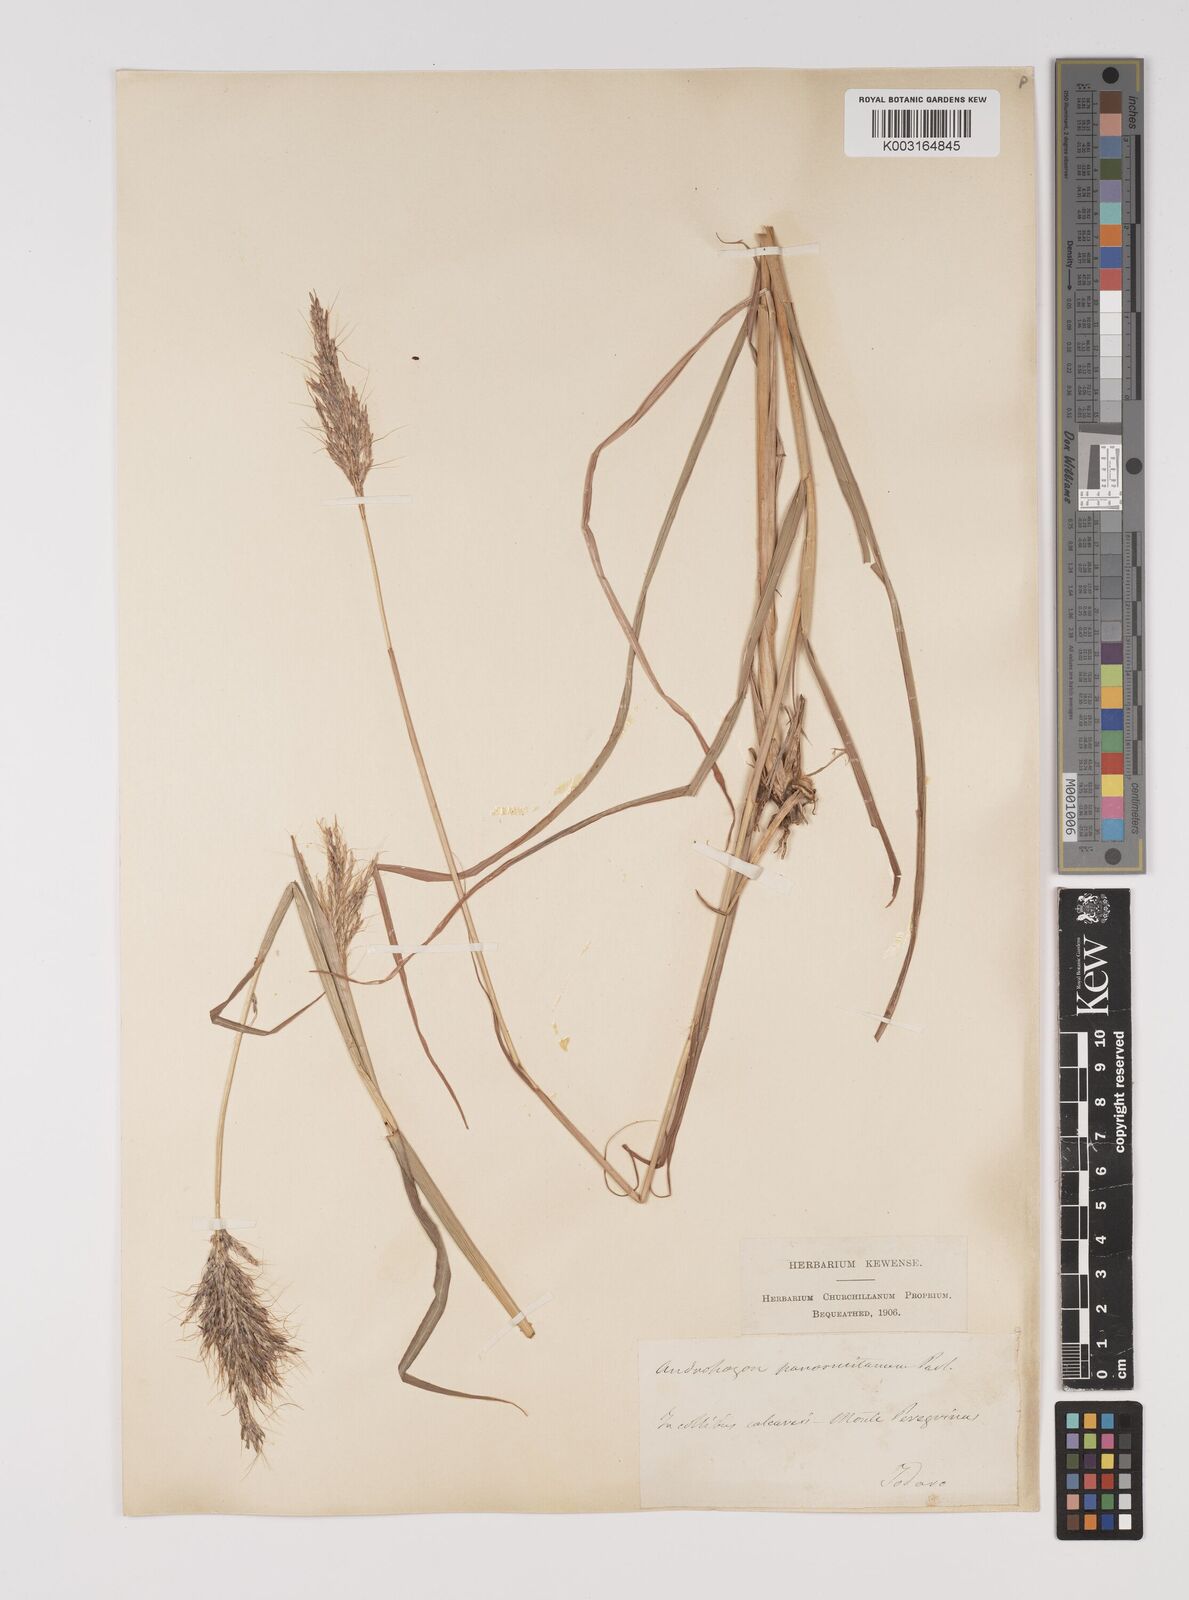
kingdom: Plantae
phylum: Tracheophyta
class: Liliopsida
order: Poales
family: Poaceae
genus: Bothriochloa
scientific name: Bothriochloa insculpta
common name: Creeping-bluegrass
